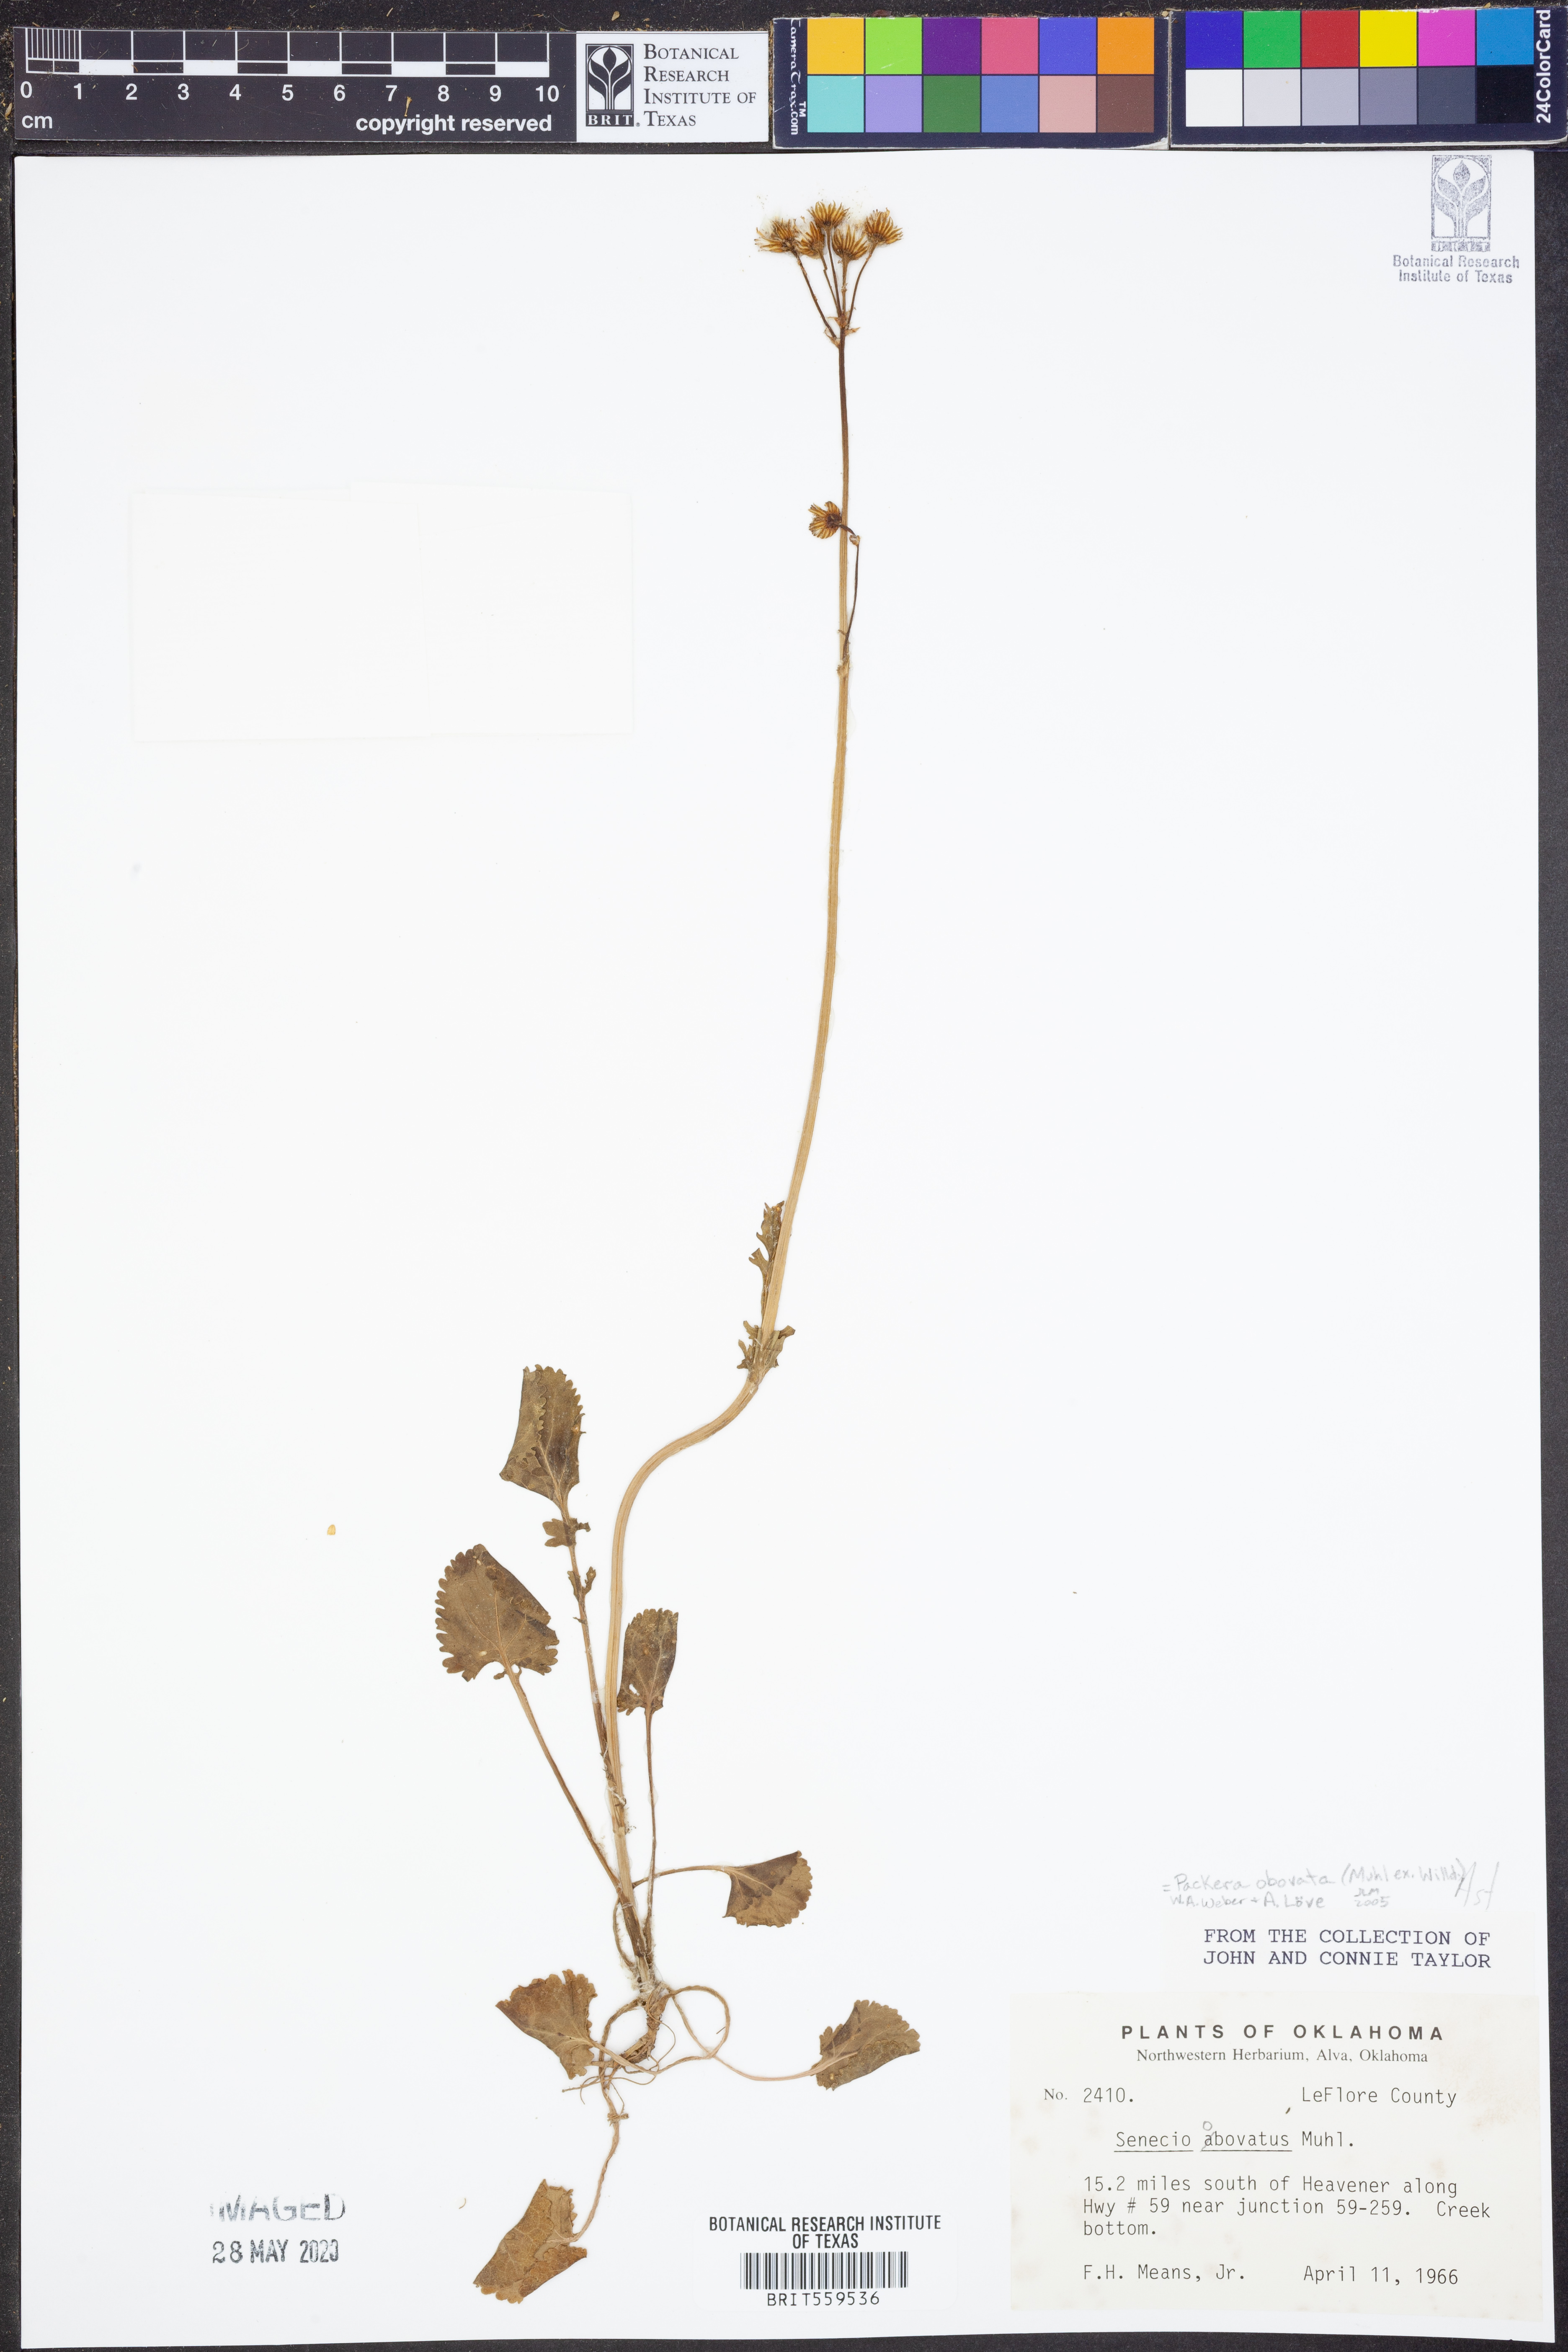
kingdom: Plantae
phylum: Tracheophyta
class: Magnoliopsida
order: Asterales
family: Asteraceae
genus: Packera
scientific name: Packera obovata
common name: Round-leaf ragwort
